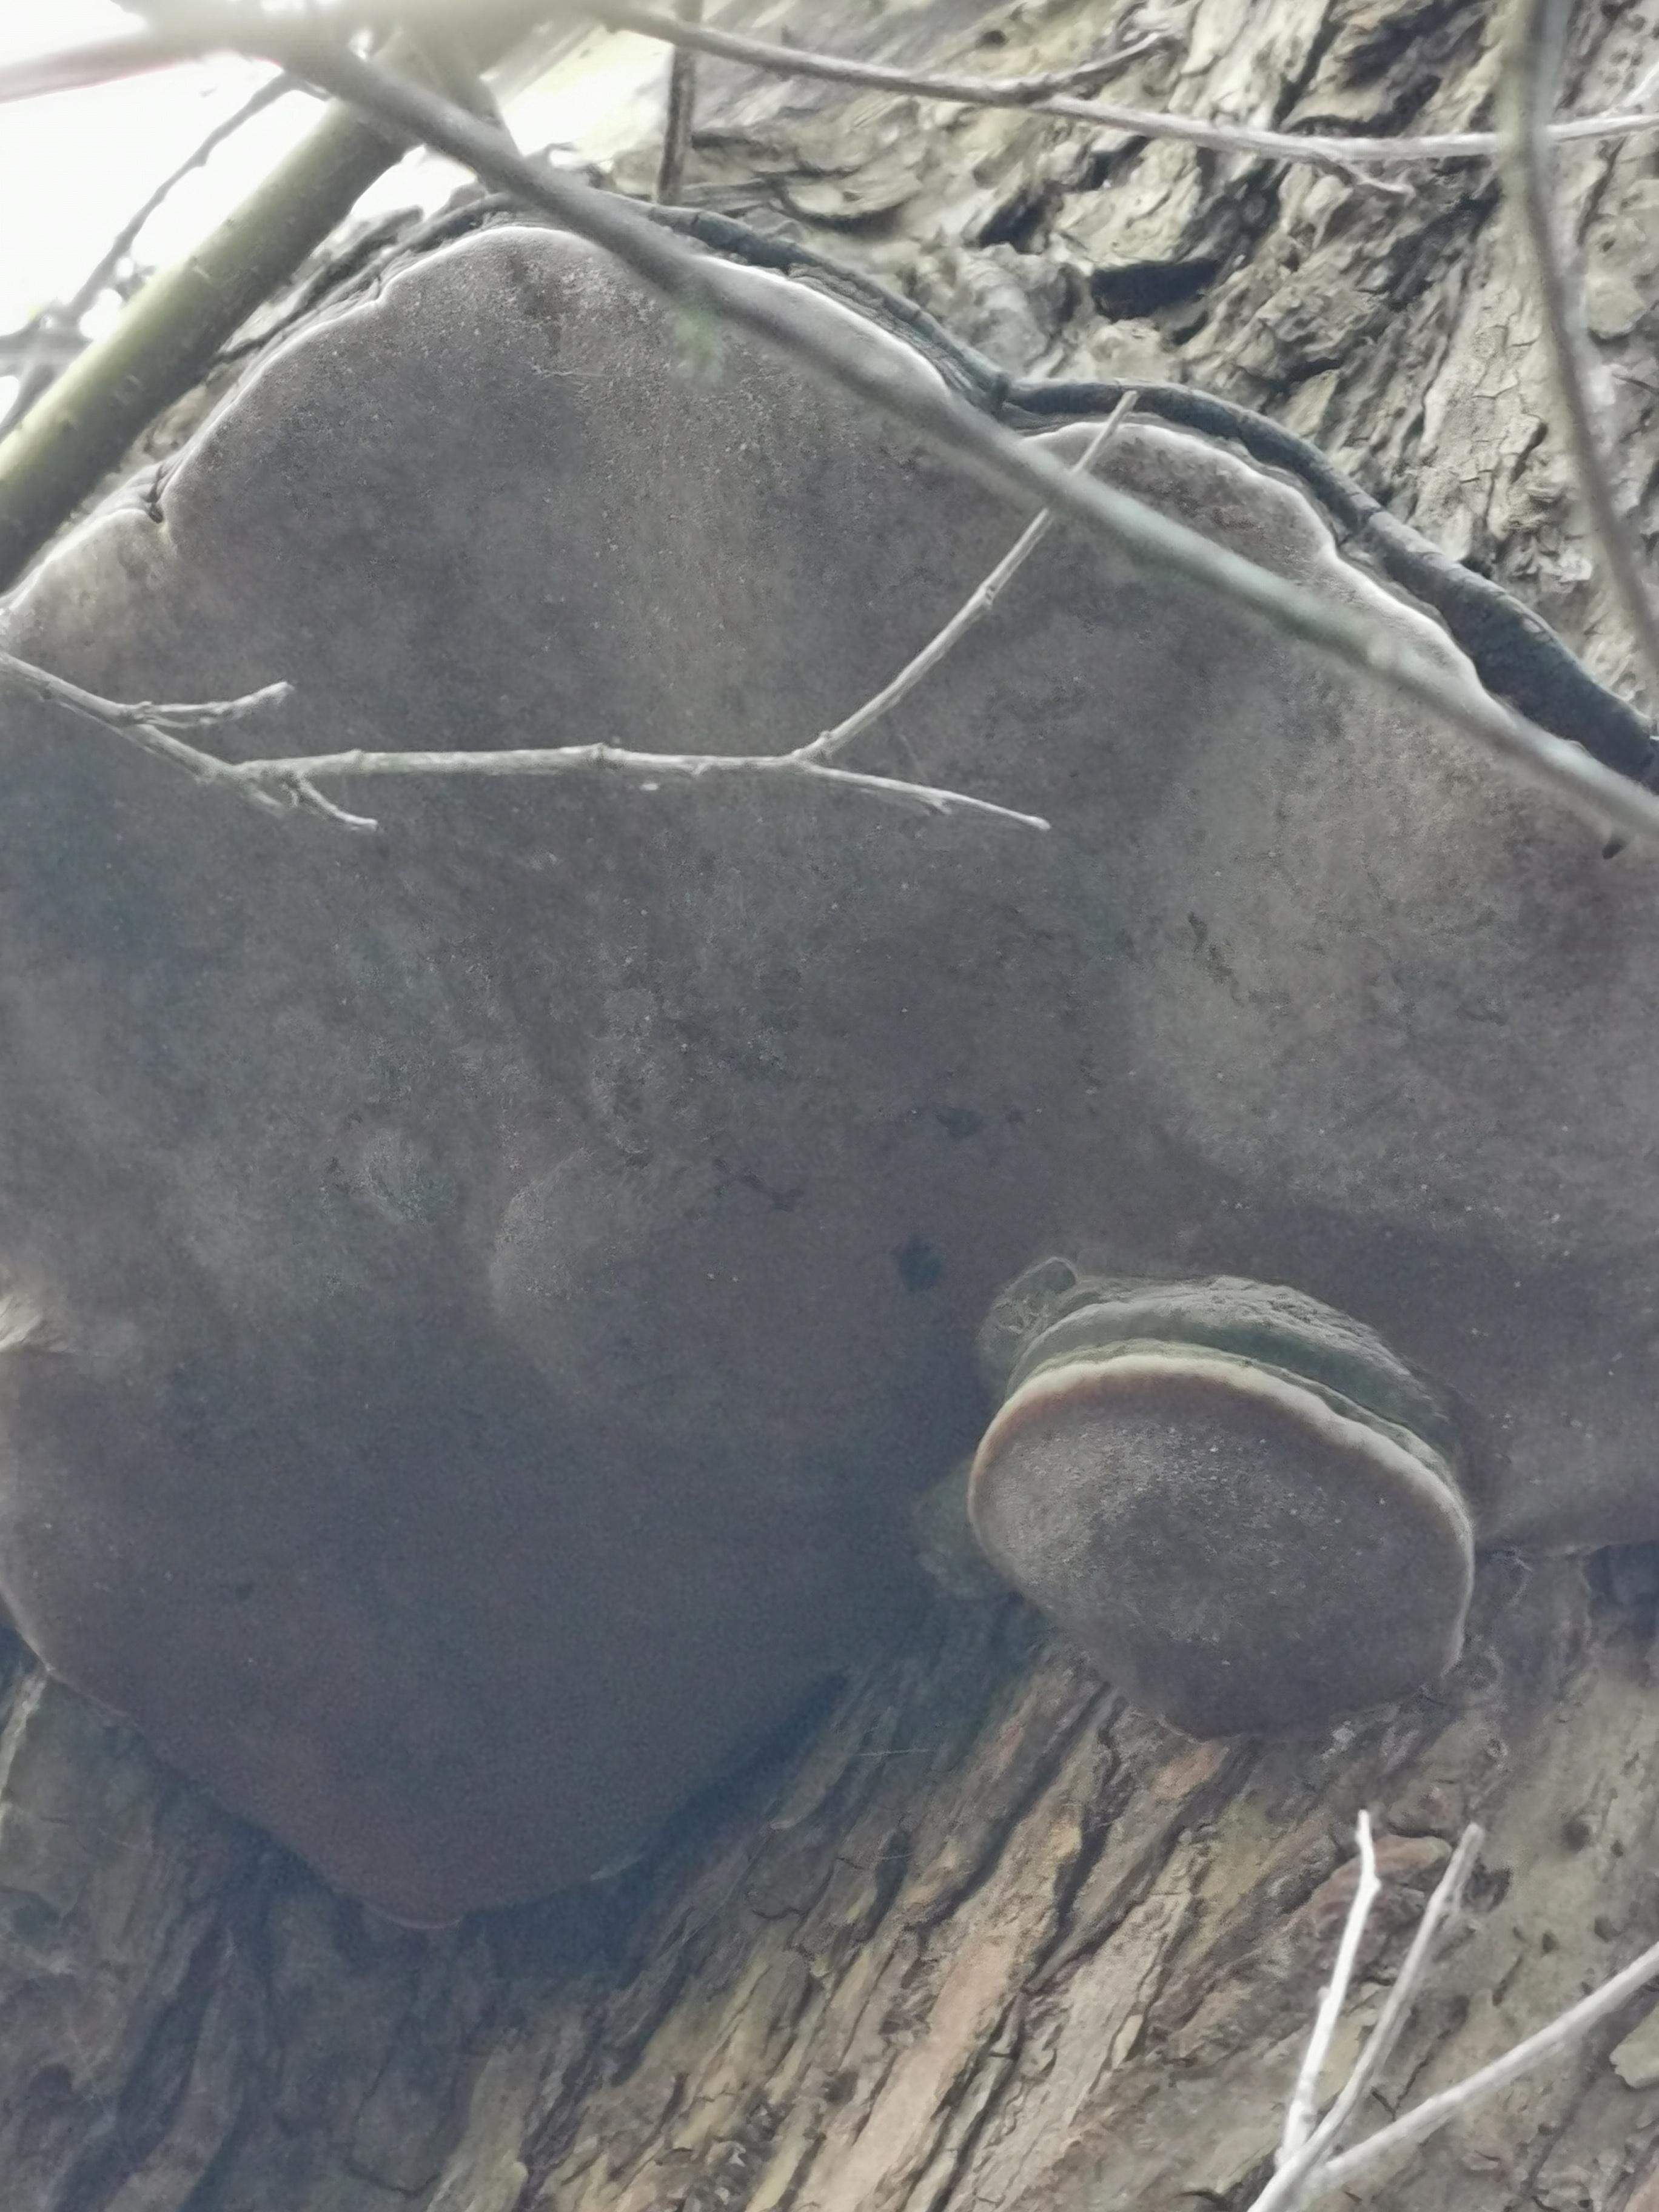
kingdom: Fungi
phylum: Basidiomycota
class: Agaricomycetes
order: Hymenochaetales
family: Hymenochaetaceae
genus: Phellinus
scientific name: Phellinus igniarius
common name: almindelig ildporesvamp
